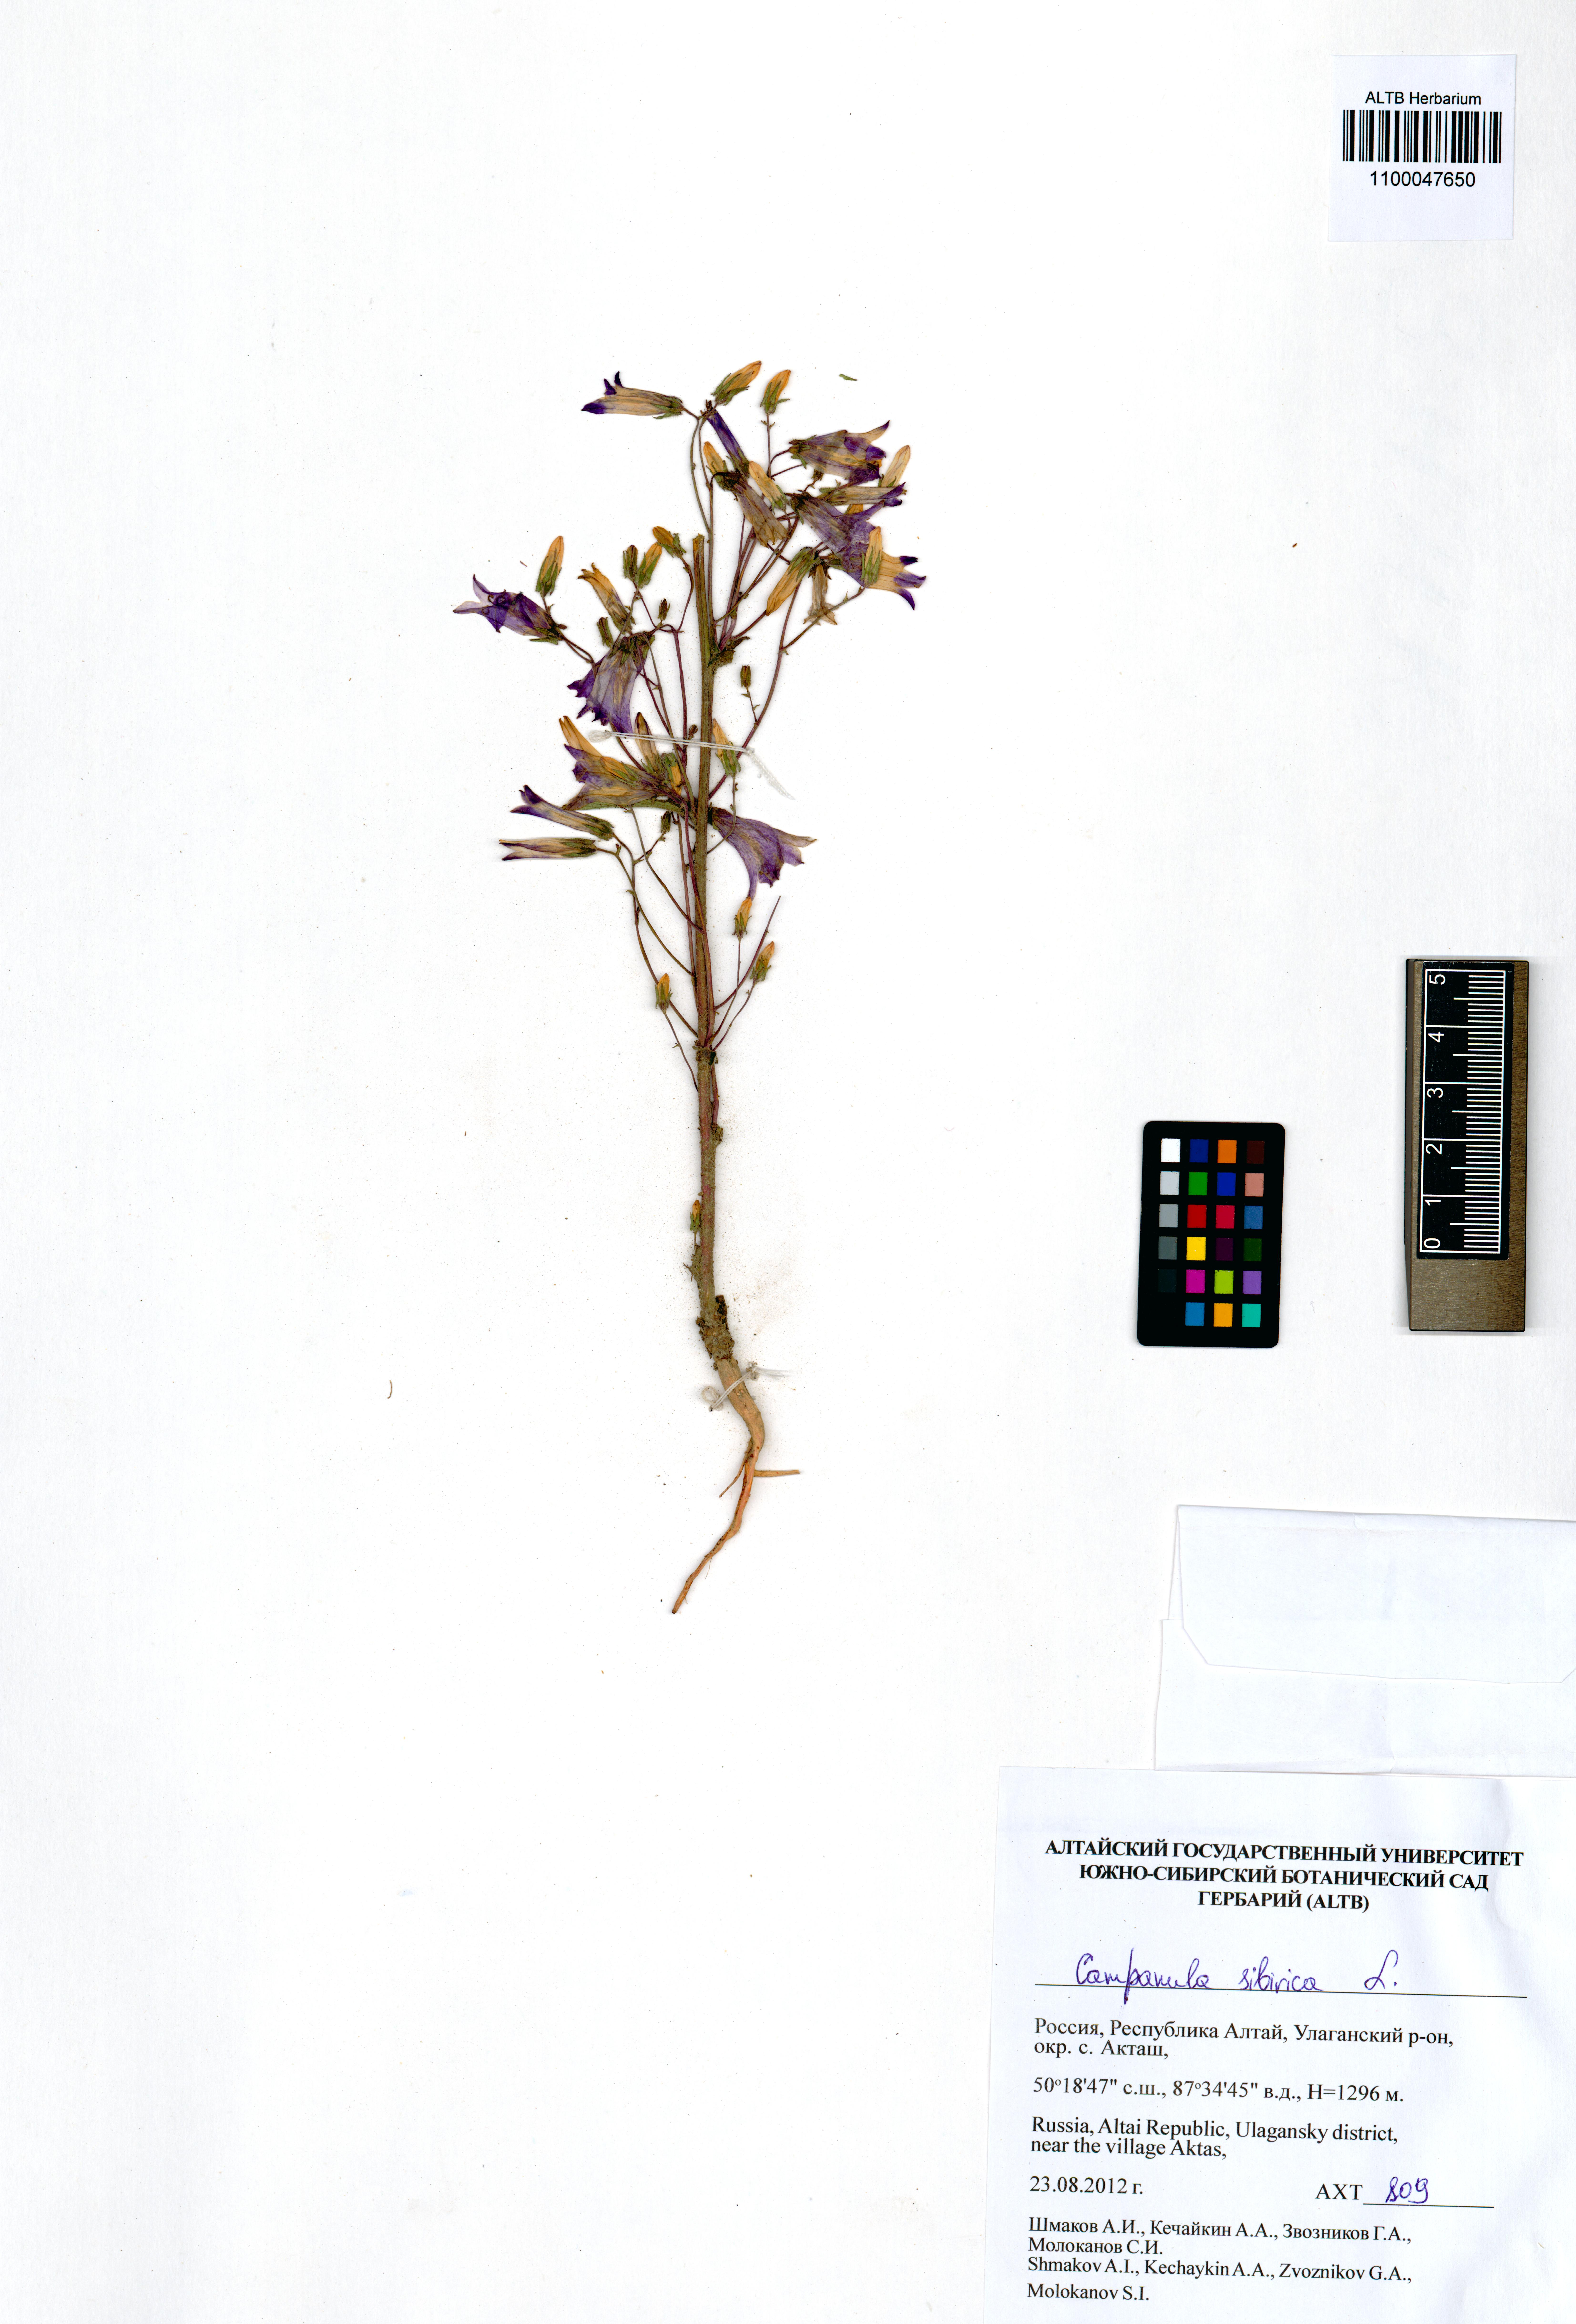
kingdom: Plantae
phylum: Tracheophyta
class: Magnoliopsida
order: Asterales
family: Campanulaceae
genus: Campanula
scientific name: Campanula sibirica
